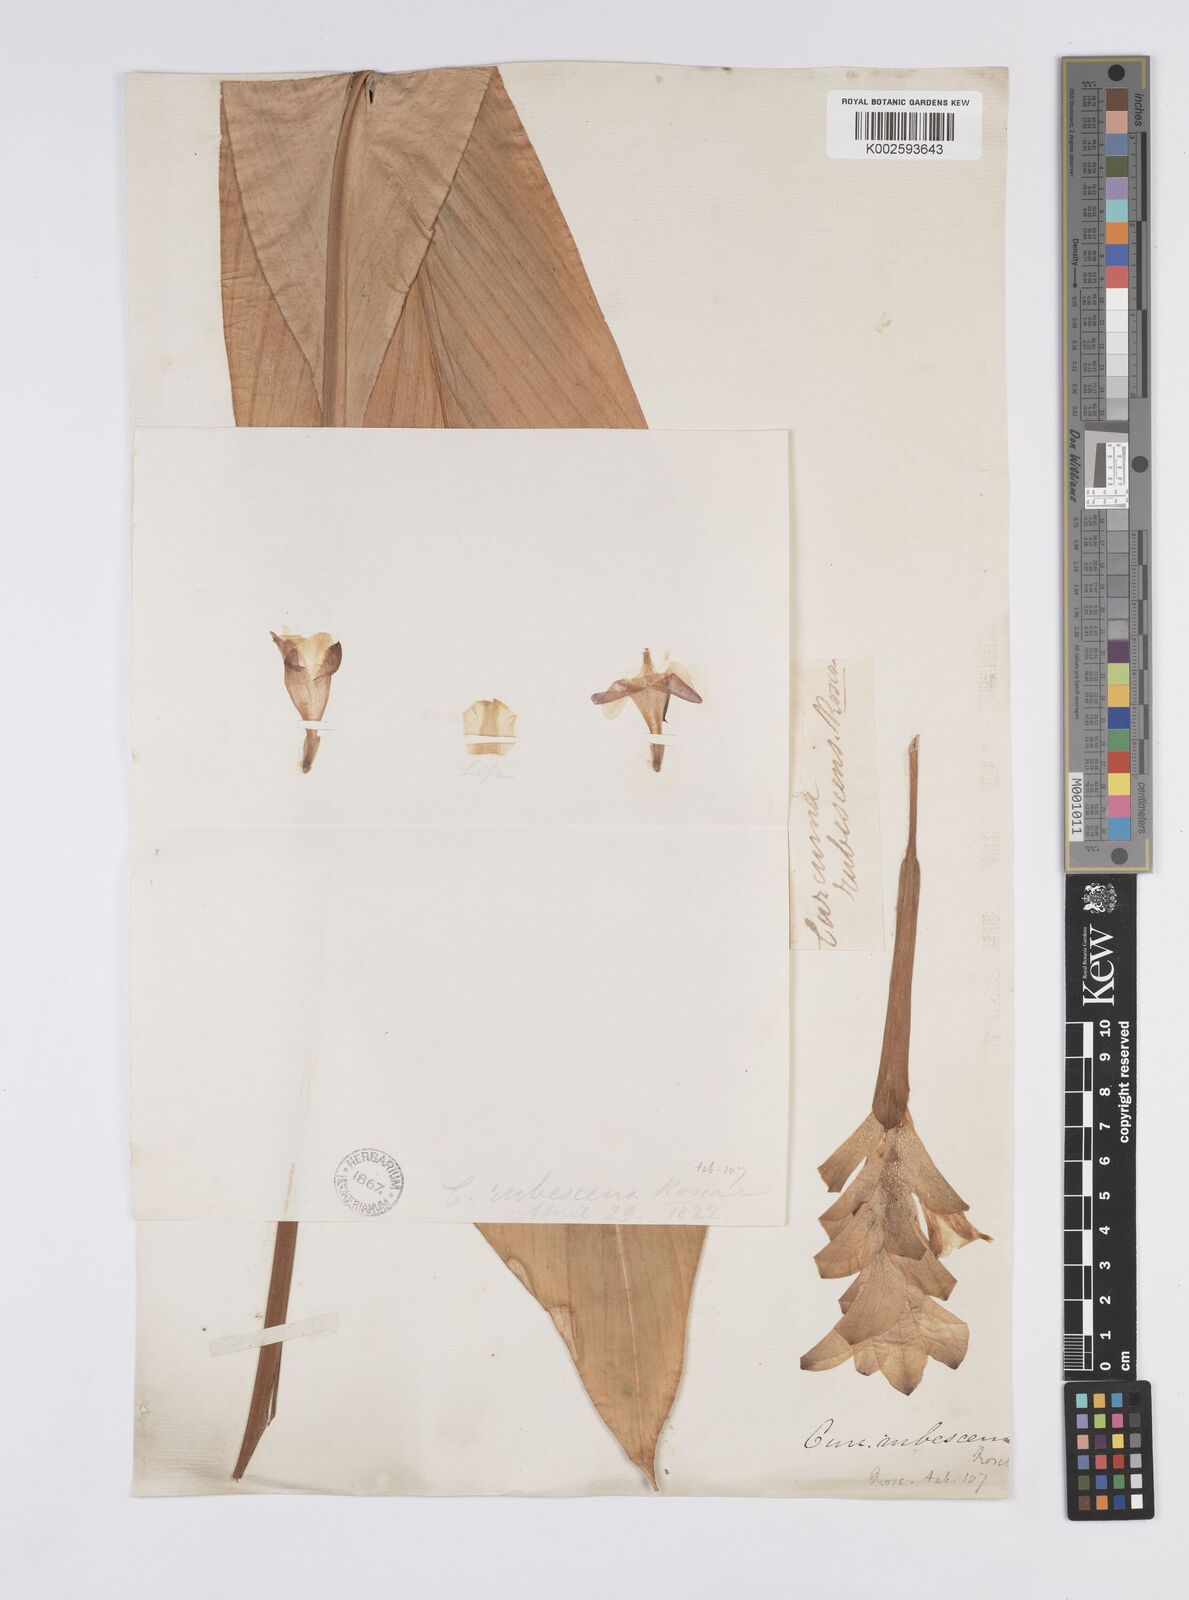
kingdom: Plantae
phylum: Tracheophyta
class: Liliopsida
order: Zingiberales
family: Zingiberaceae
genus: Curcuma
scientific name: Curcuma ferruginea
